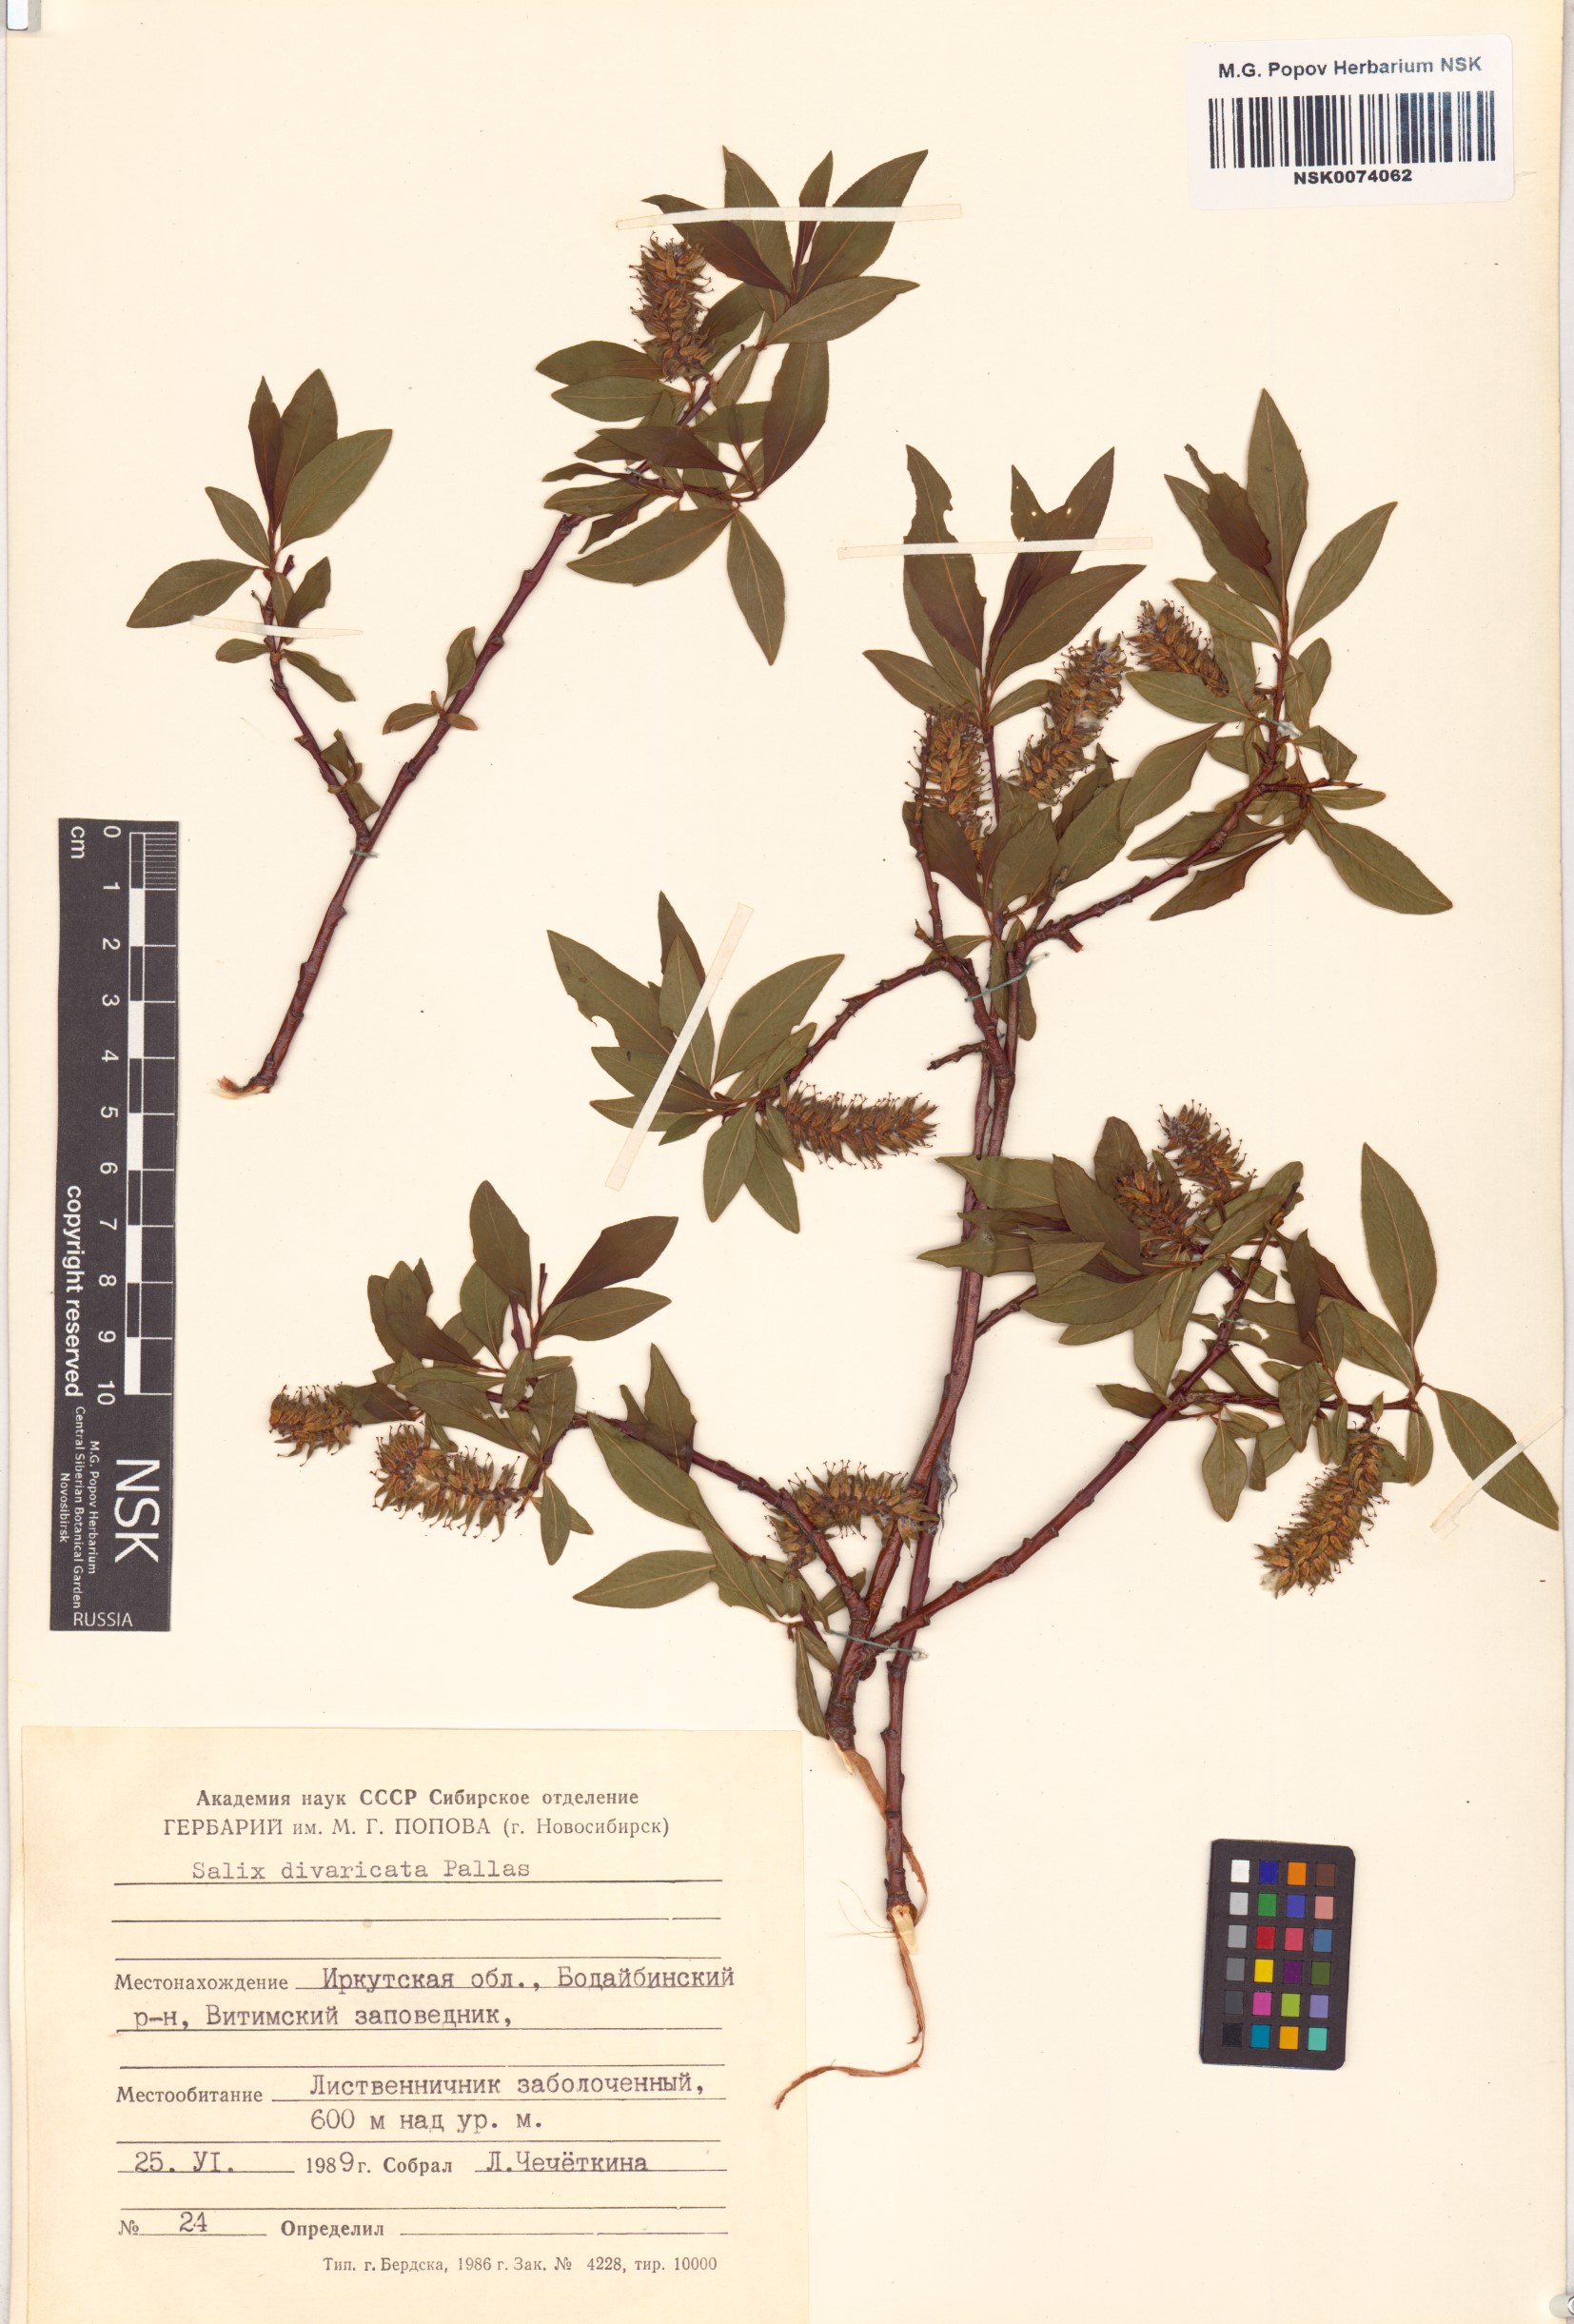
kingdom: Plantae
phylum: Tracheophyta
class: Magnoliopsida
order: Malpighiales
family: Salicaceae
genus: Salix
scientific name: Salix divaricata
